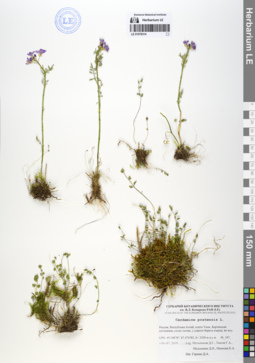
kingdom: Plantae
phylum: Tracheophyta
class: Magnoliopsida
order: Brassicales
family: Brassicaceae
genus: Cardamine
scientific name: Cardamine pratensis
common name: Cuckoo flower
